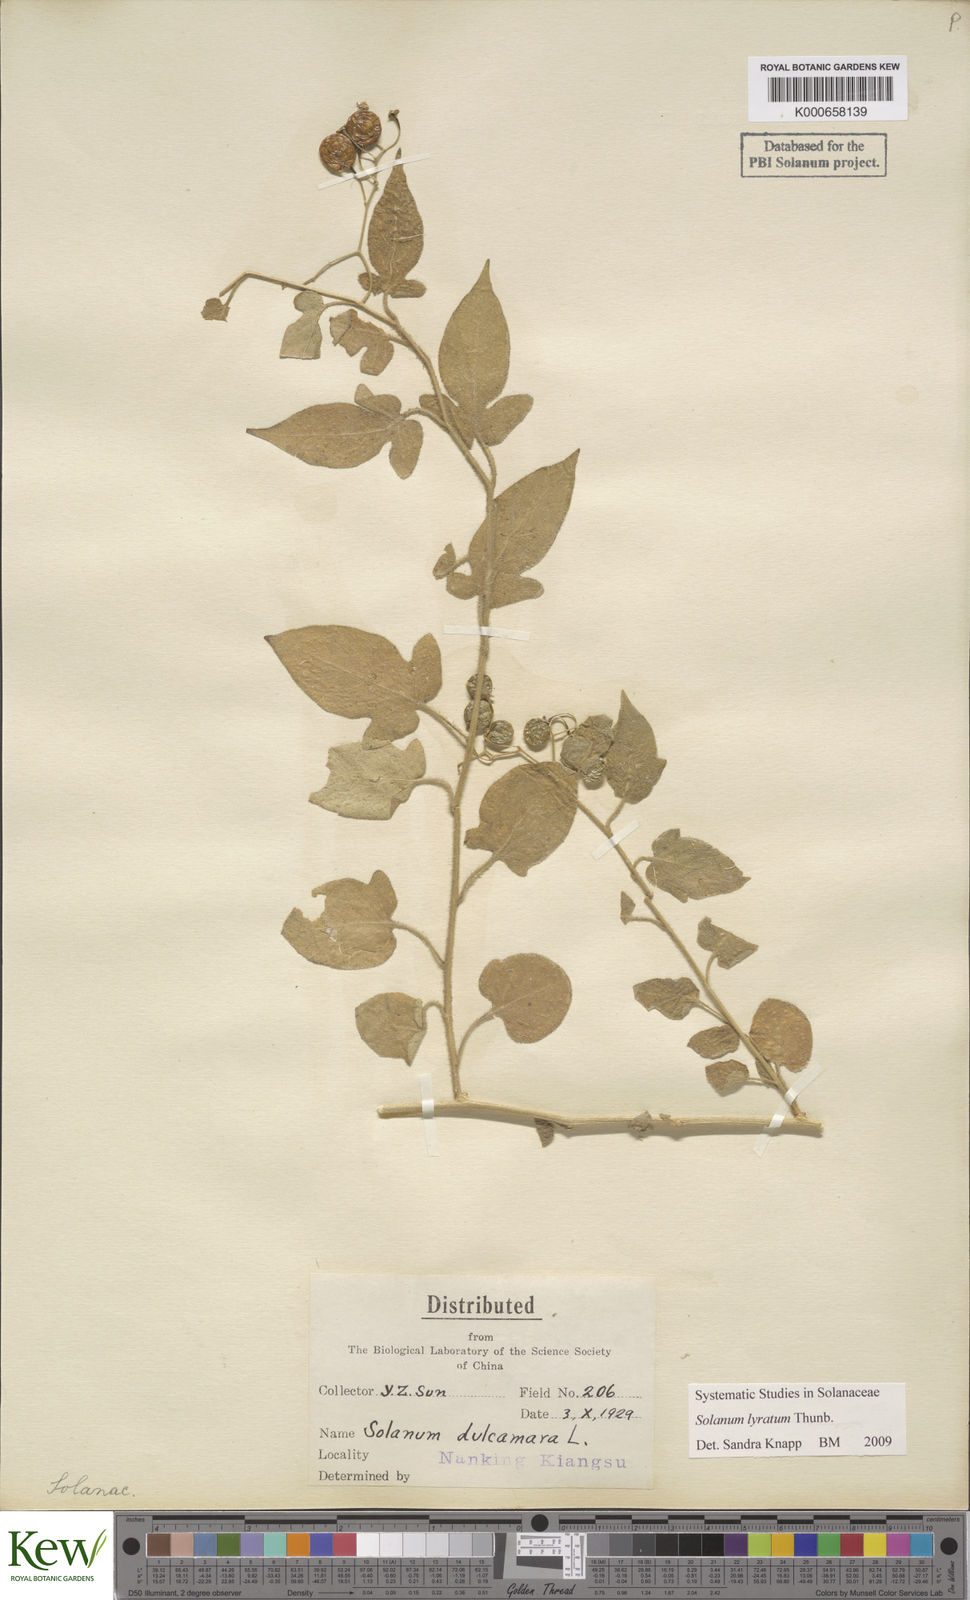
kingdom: Plantae
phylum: Tracheophyta
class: Magnoliopsida
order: Solanales
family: Solanaceae
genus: Solanum
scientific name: Solanum lyratum
